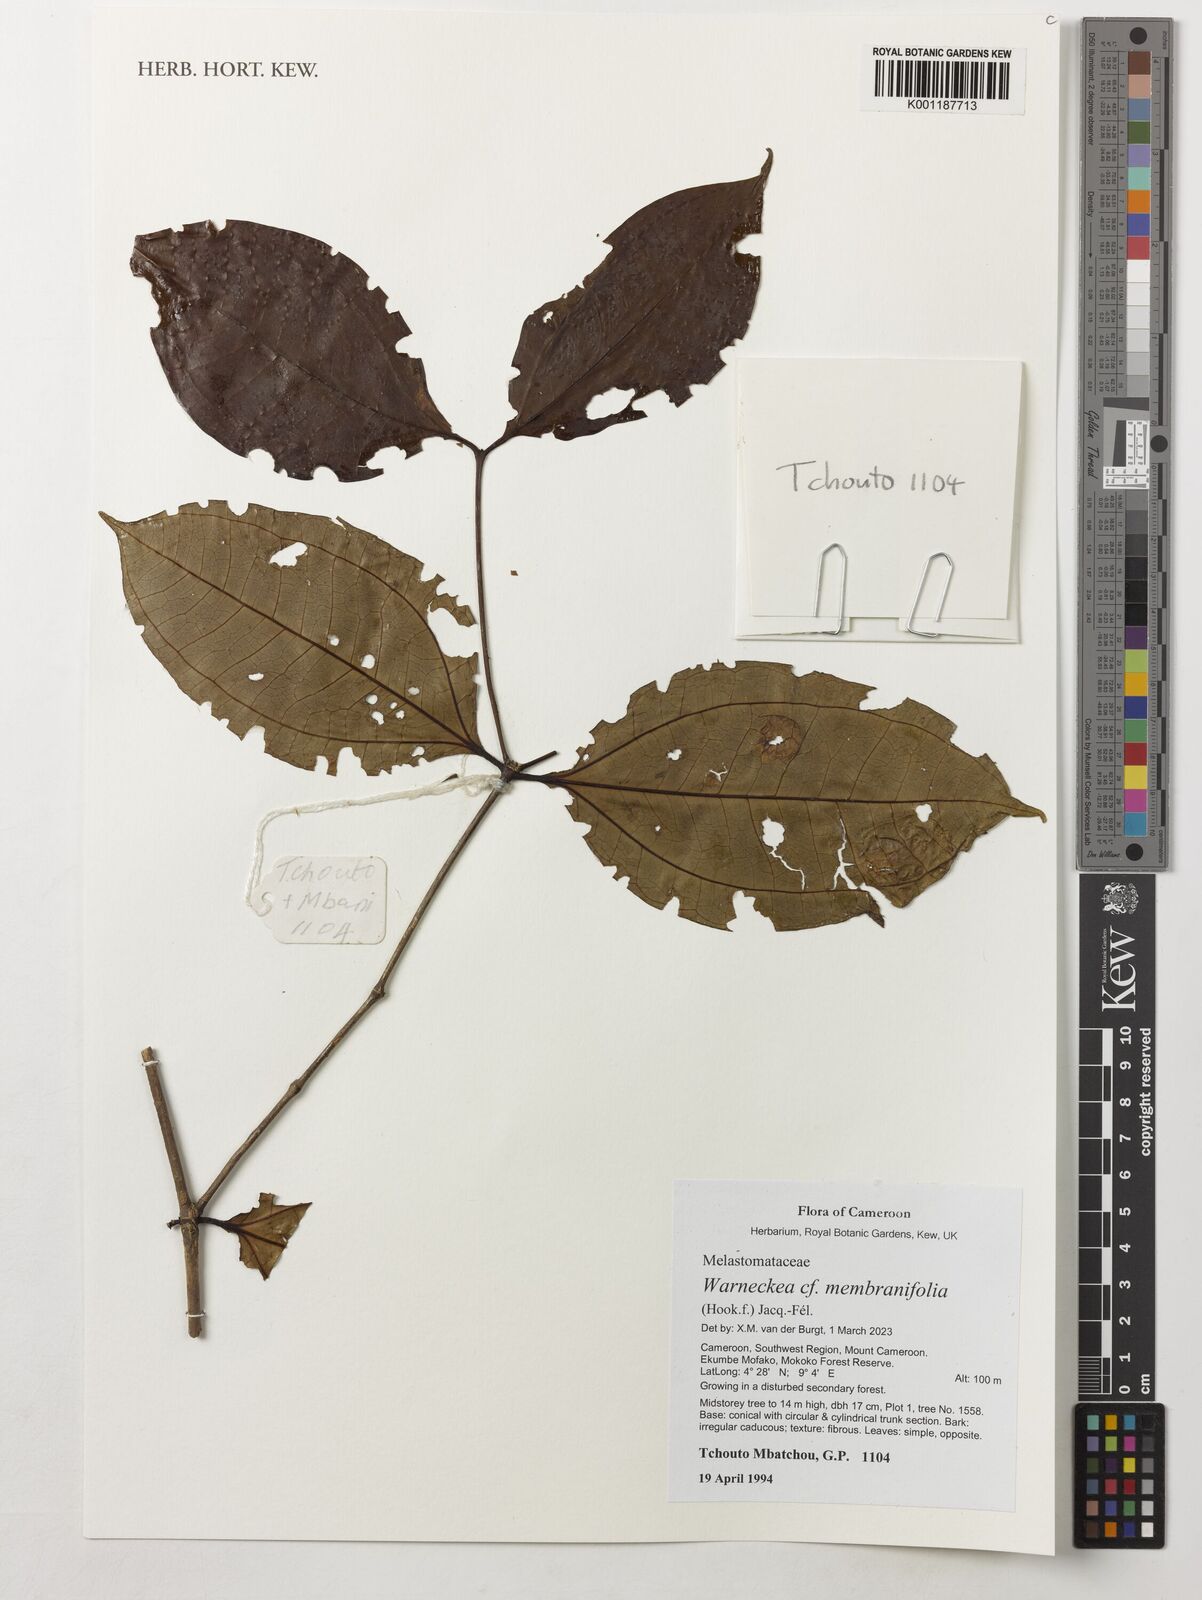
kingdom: Plantae
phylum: Tracheophyta
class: Magnoliopsida
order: Myrtales
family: Melastomataceae
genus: Warneckea
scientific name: Warneckea membranifolia
